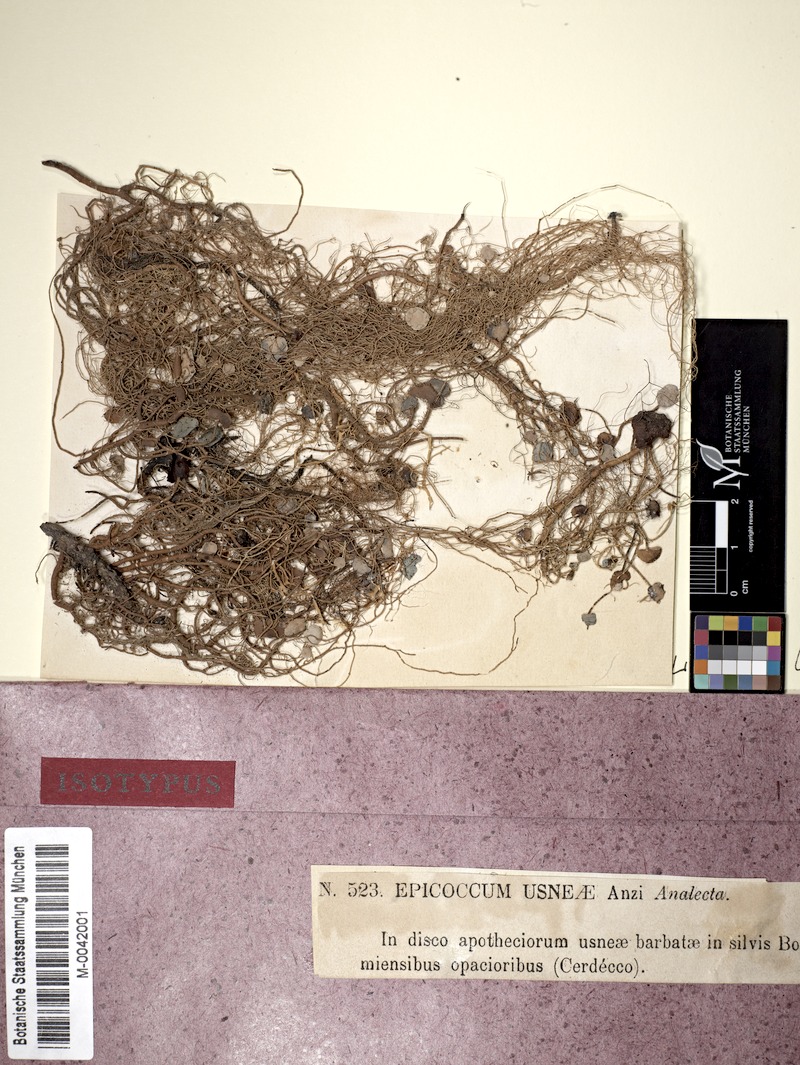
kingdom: Fungi
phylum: Ascomycota
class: Lecanoromycetes
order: Lecanorales
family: Parmeliaceae
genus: Usnea
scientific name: Usnea barbata
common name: Old man's beard lichen
